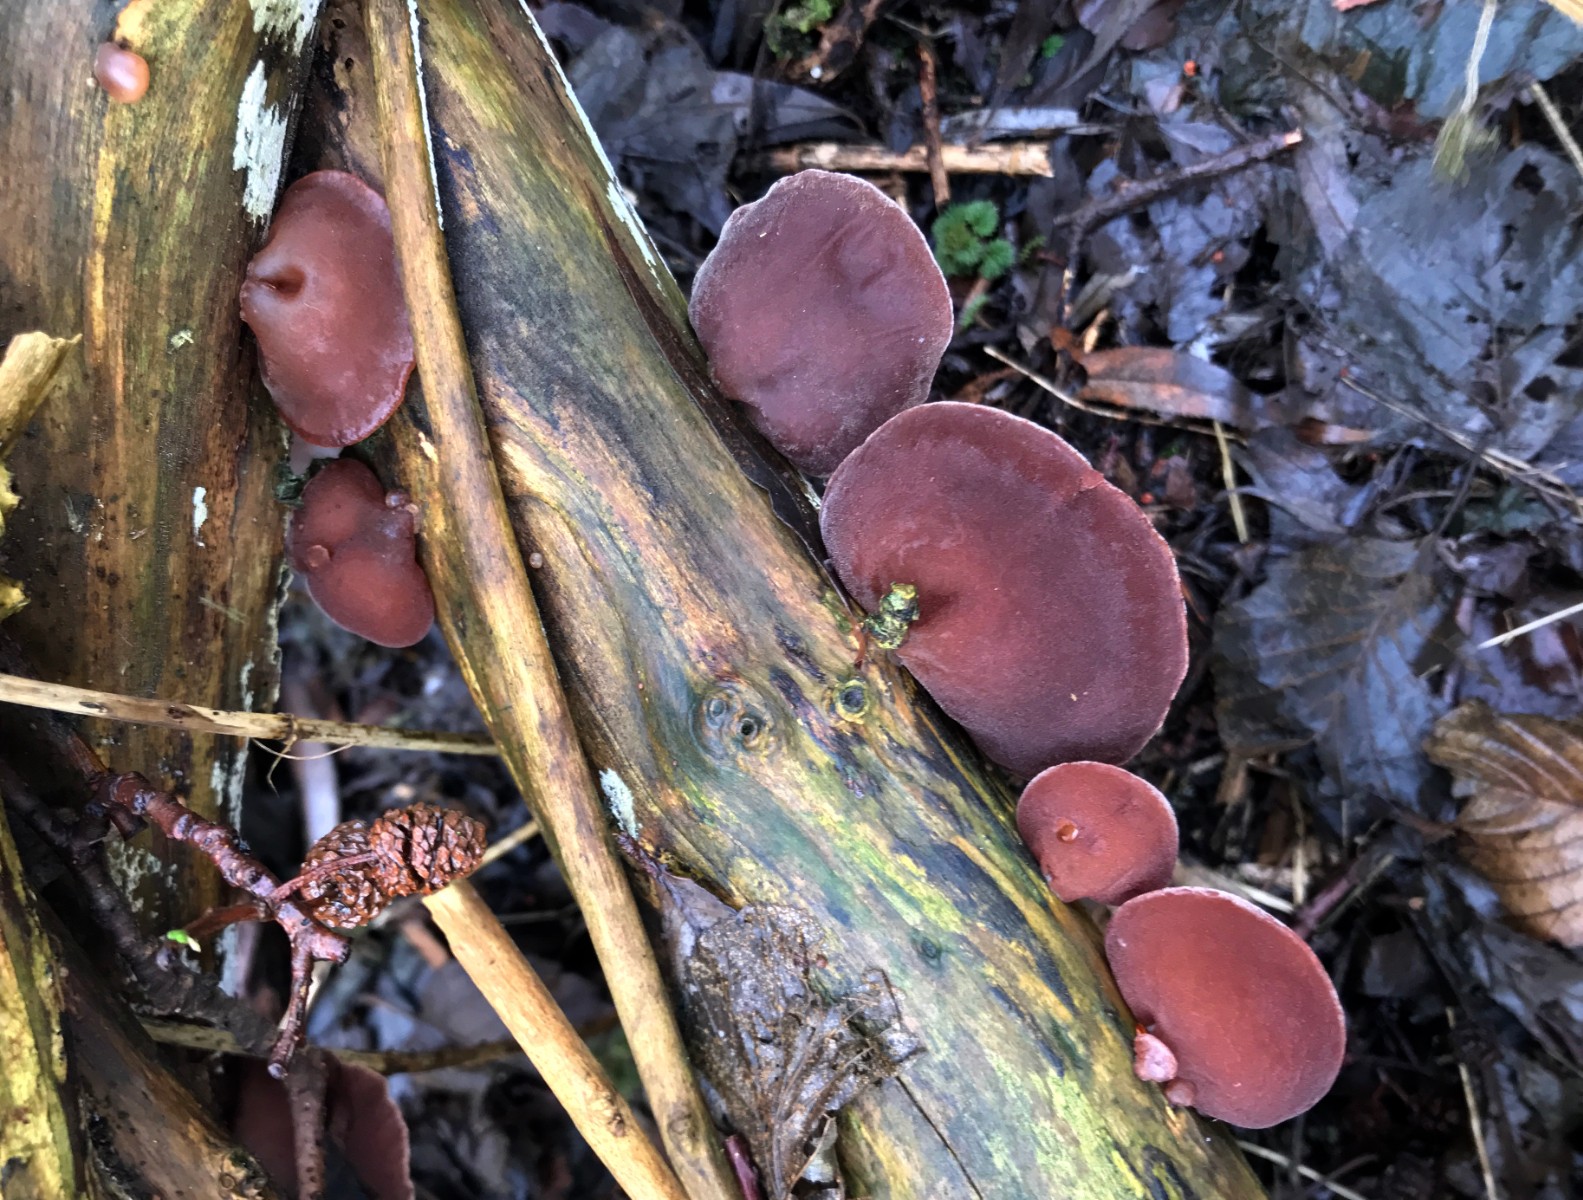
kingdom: Fungi
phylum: Basidiomycota
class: Agaricomycetes
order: Auriculariales
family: Auriculariaceae
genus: Auricularia
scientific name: Auricularia auricula-judae
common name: almindelig judasøre
